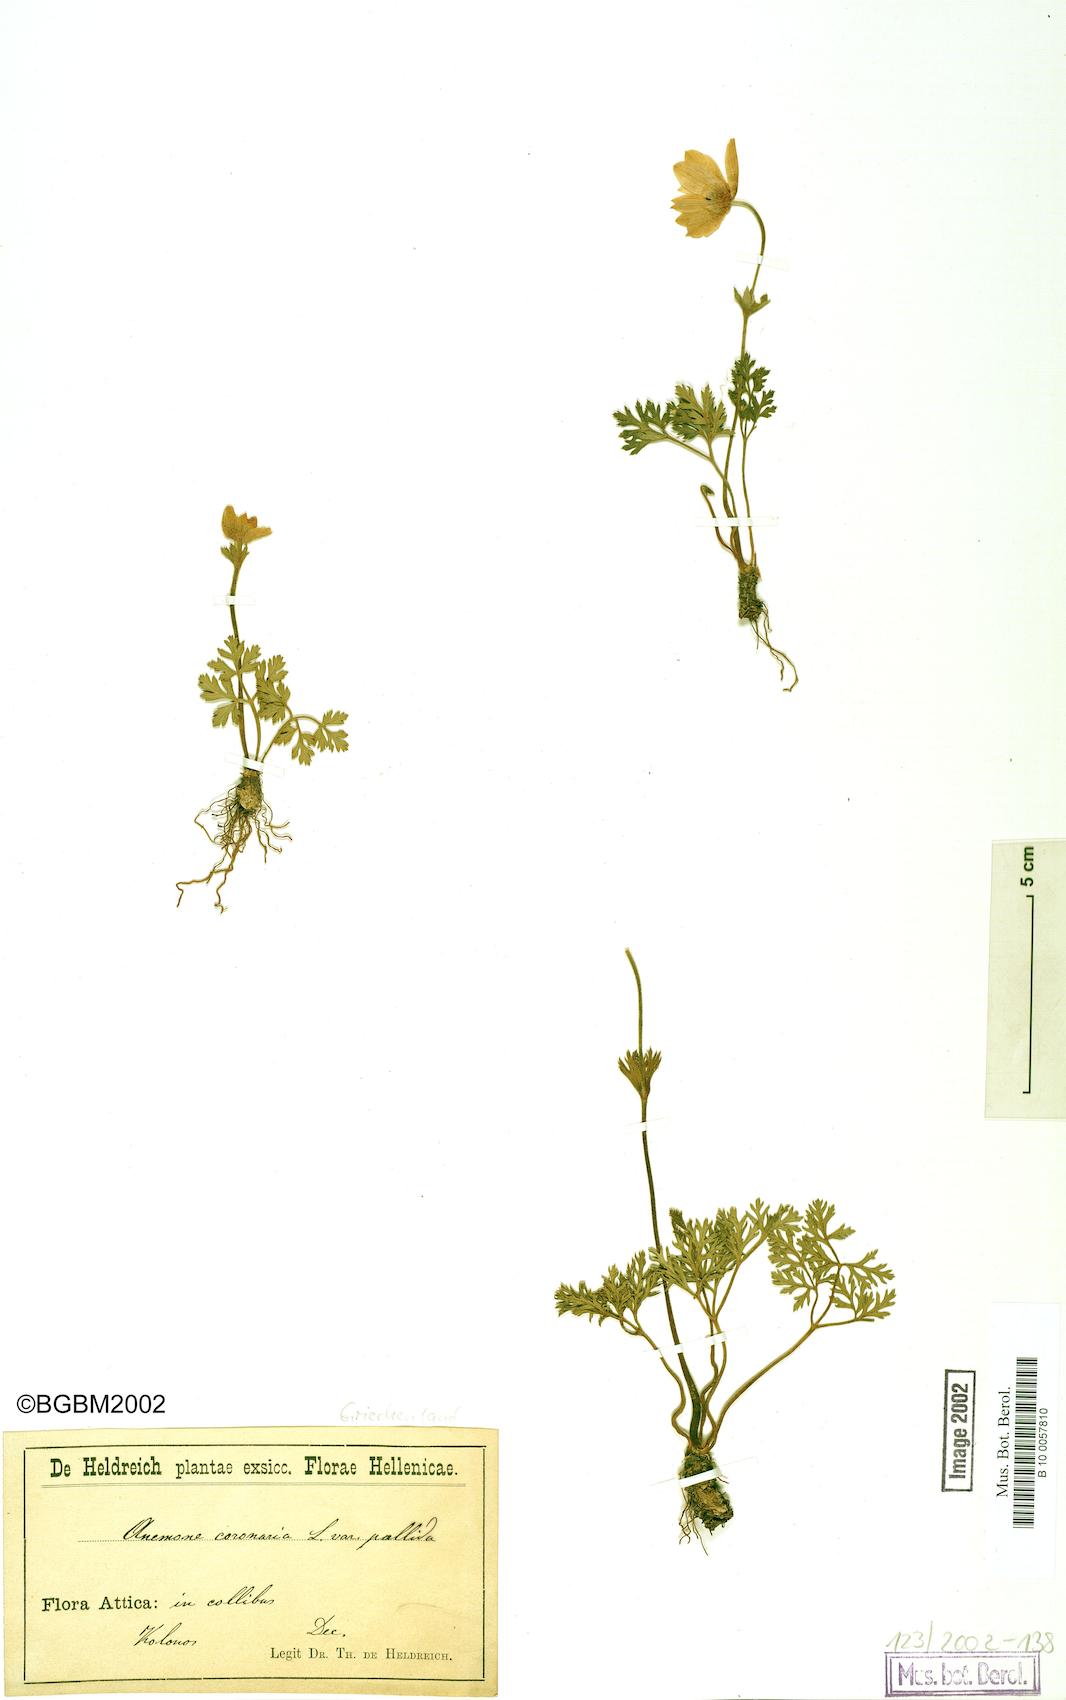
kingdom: Plantae
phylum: Tracheophyta
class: Magnoliopsida
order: Ranunculales
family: Ranunculaceae
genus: Anemone
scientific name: Anemone coronaria
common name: Poppy anemone
